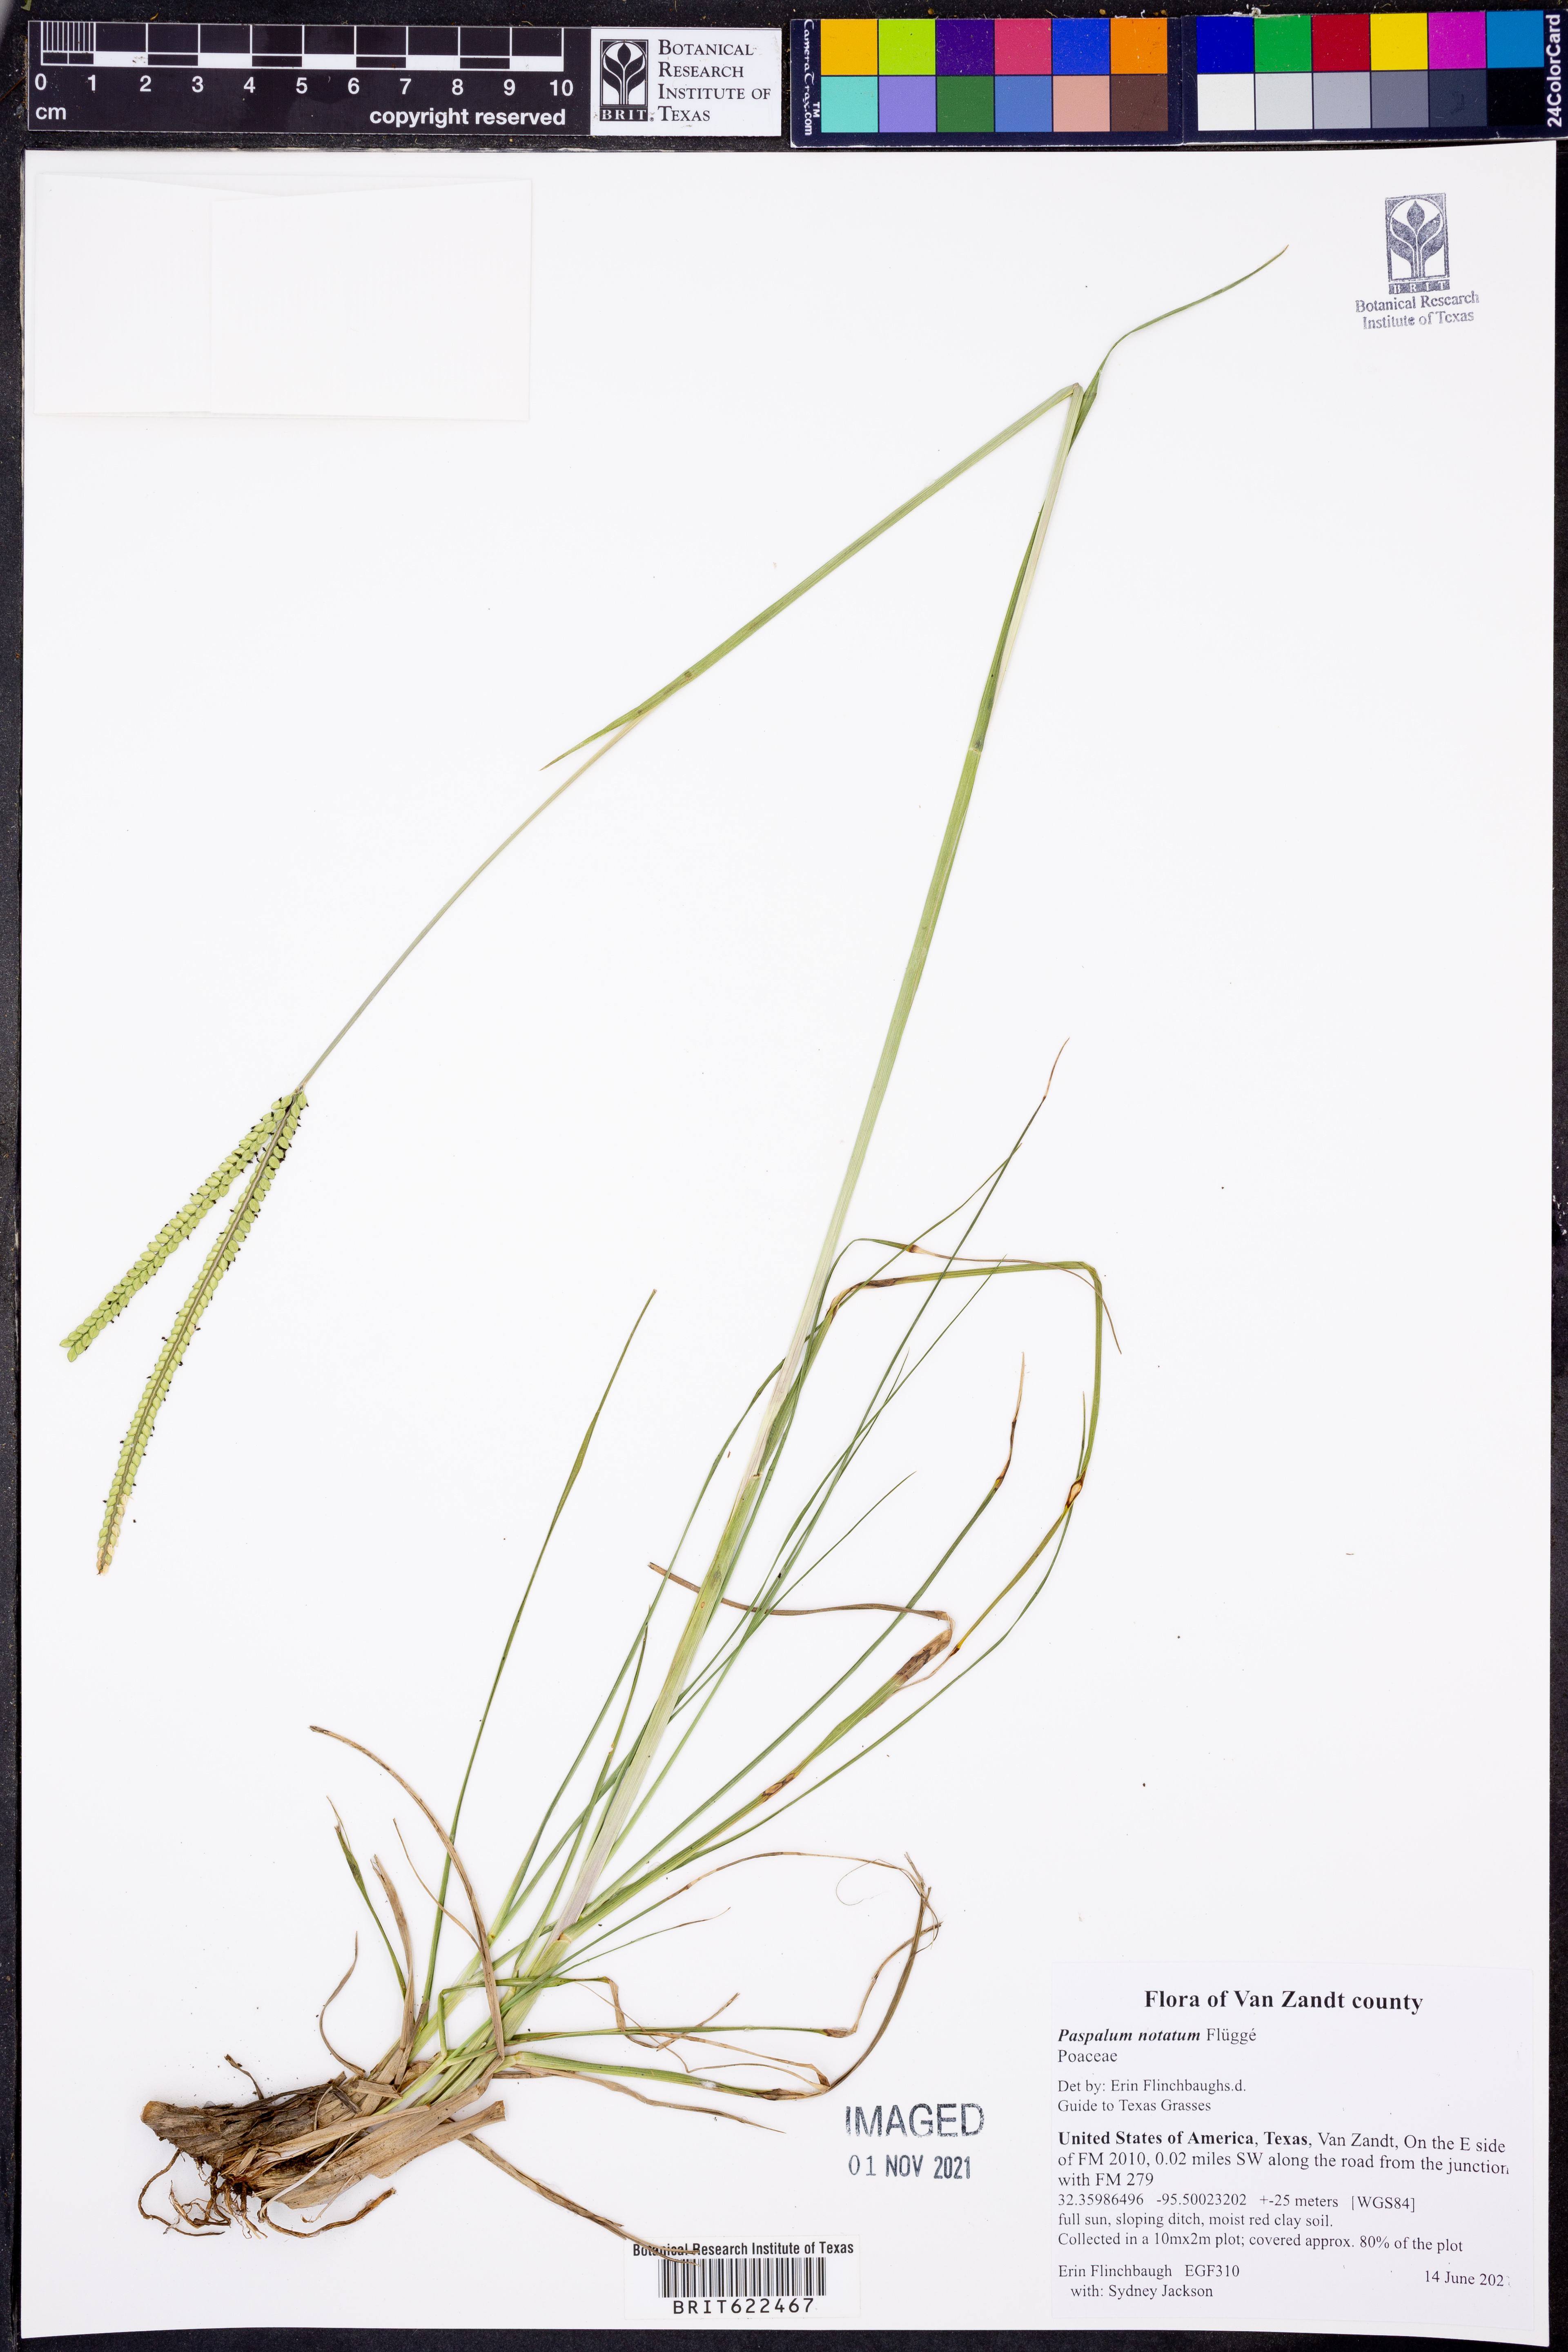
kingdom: Plantae
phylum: Tracheophyta
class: Liliopsida
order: Poales
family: Poaceae
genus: Paspalum
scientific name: Paspalum notatum
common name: Bahiagrass
